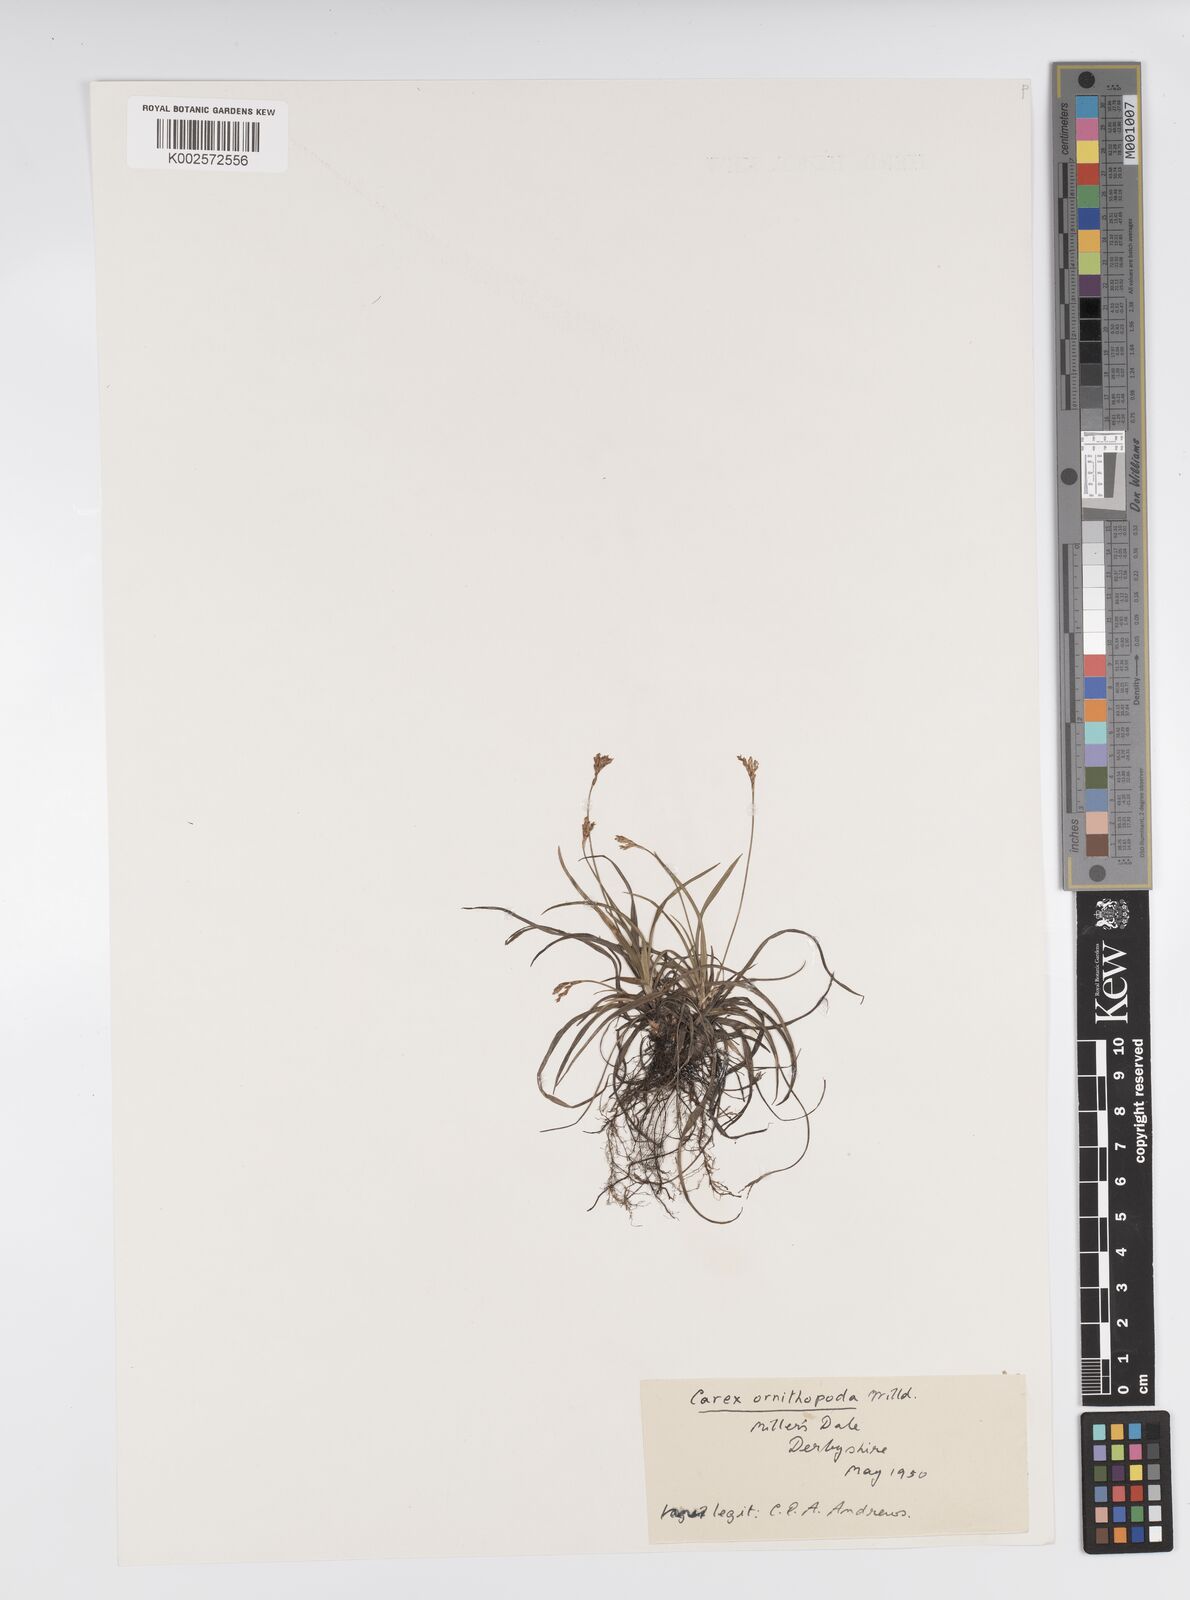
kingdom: Plantae
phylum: Tracheophyta
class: Liliopsida
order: Poales
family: Cyperaceae
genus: Carex
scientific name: Carex ornithopoda
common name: Bird's-foot sedge
